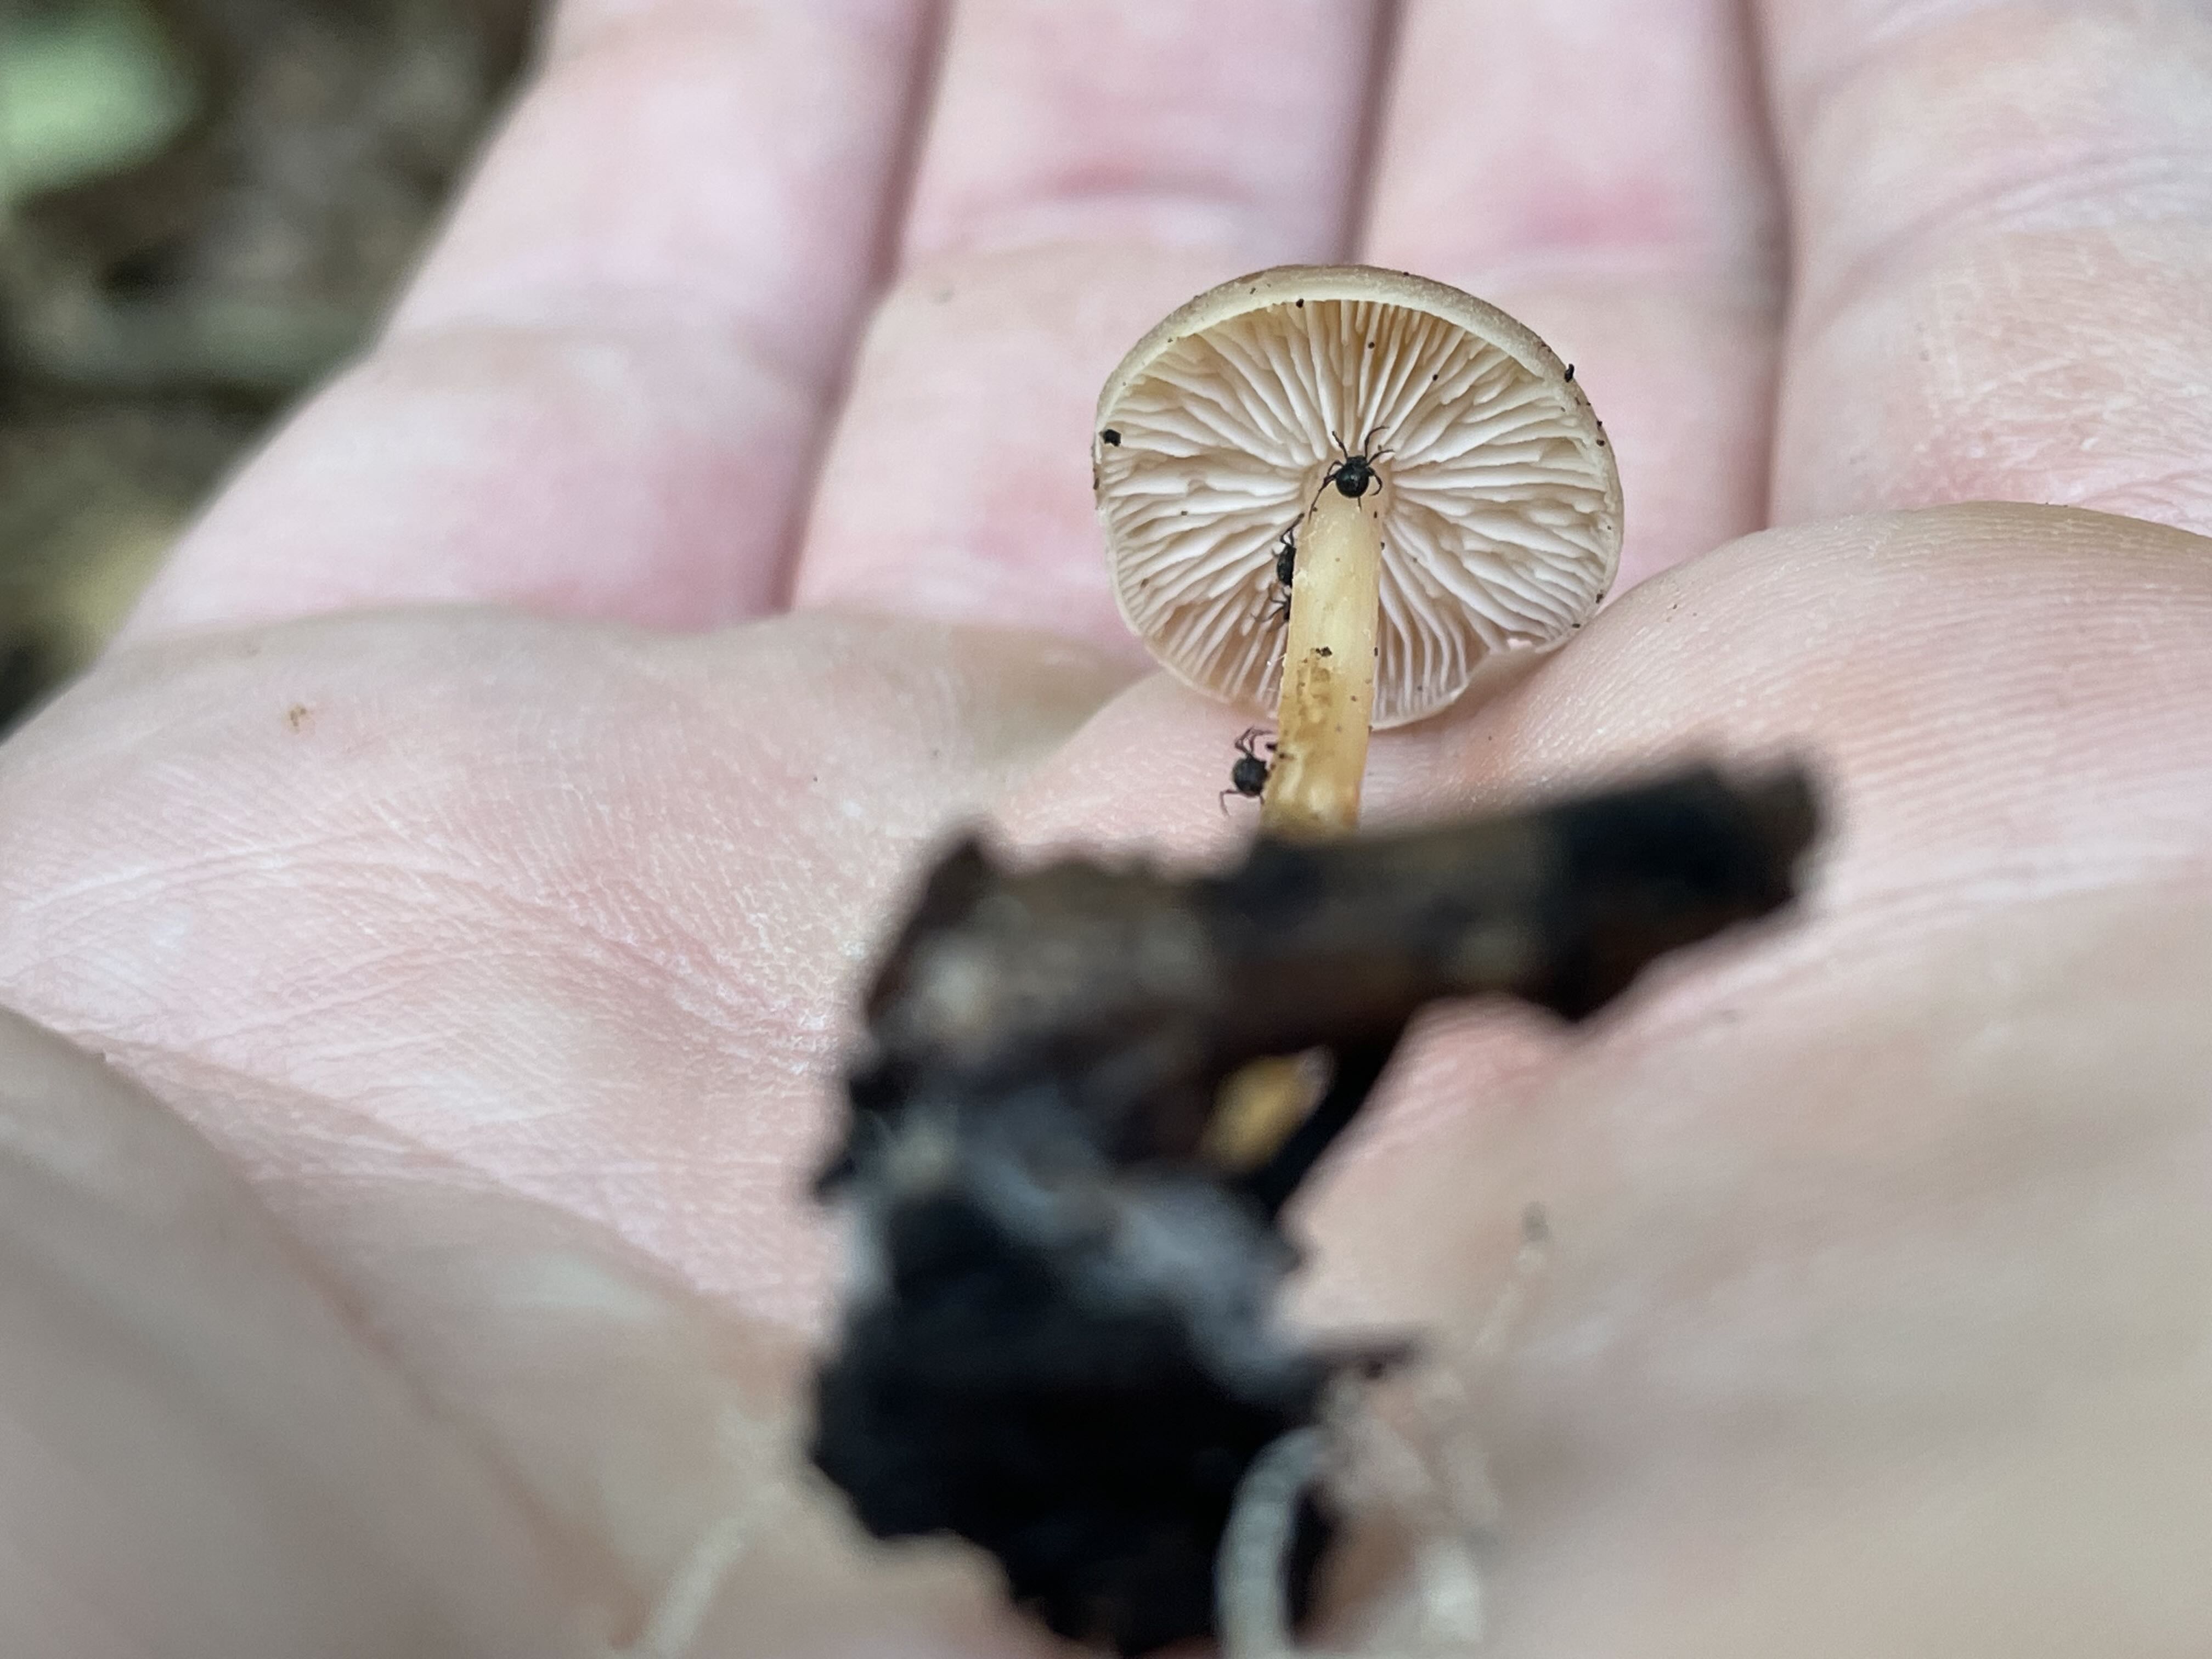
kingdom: Fungi
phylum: Basidiomycota
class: Agaricomycetes
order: Agaricales
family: Omphalotaceae
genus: Gymnopus
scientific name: Gymnopus dryophilus
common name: løv-fladhat
